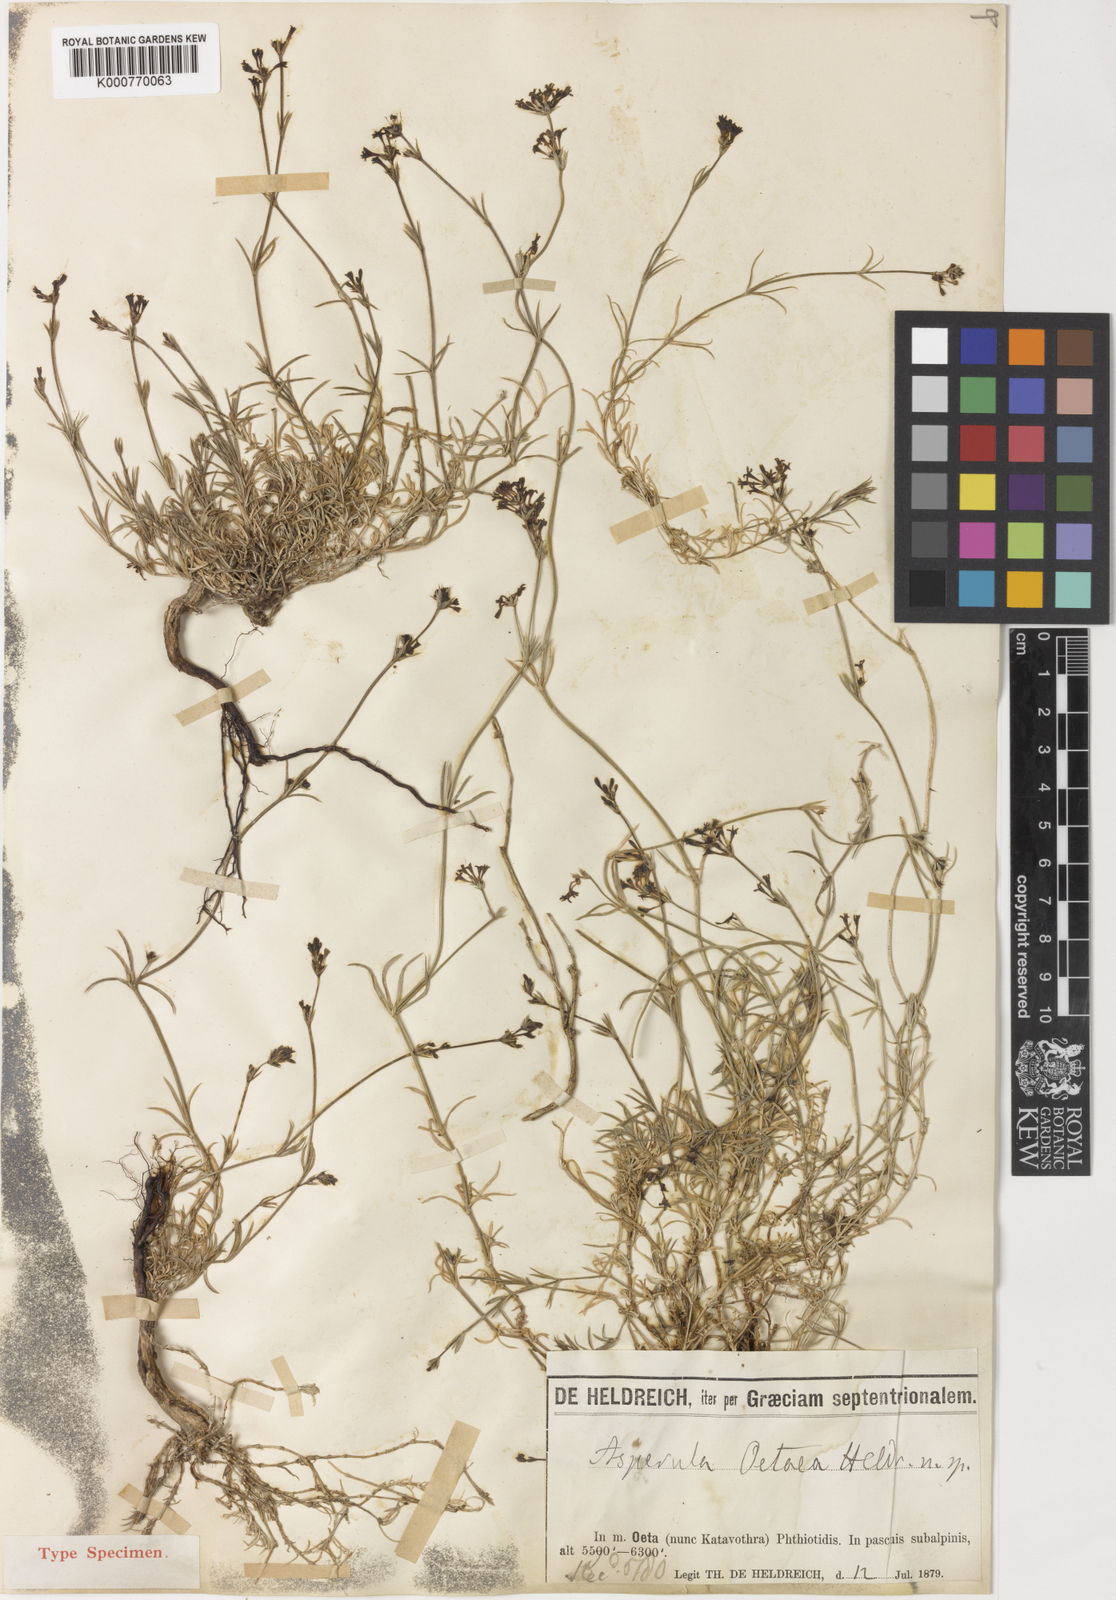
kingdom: Plantae
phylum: Tracheophyta
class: Magnoliopsida
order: Gentianales
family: Rubiaceae
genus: Asperula
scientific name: Asperula
